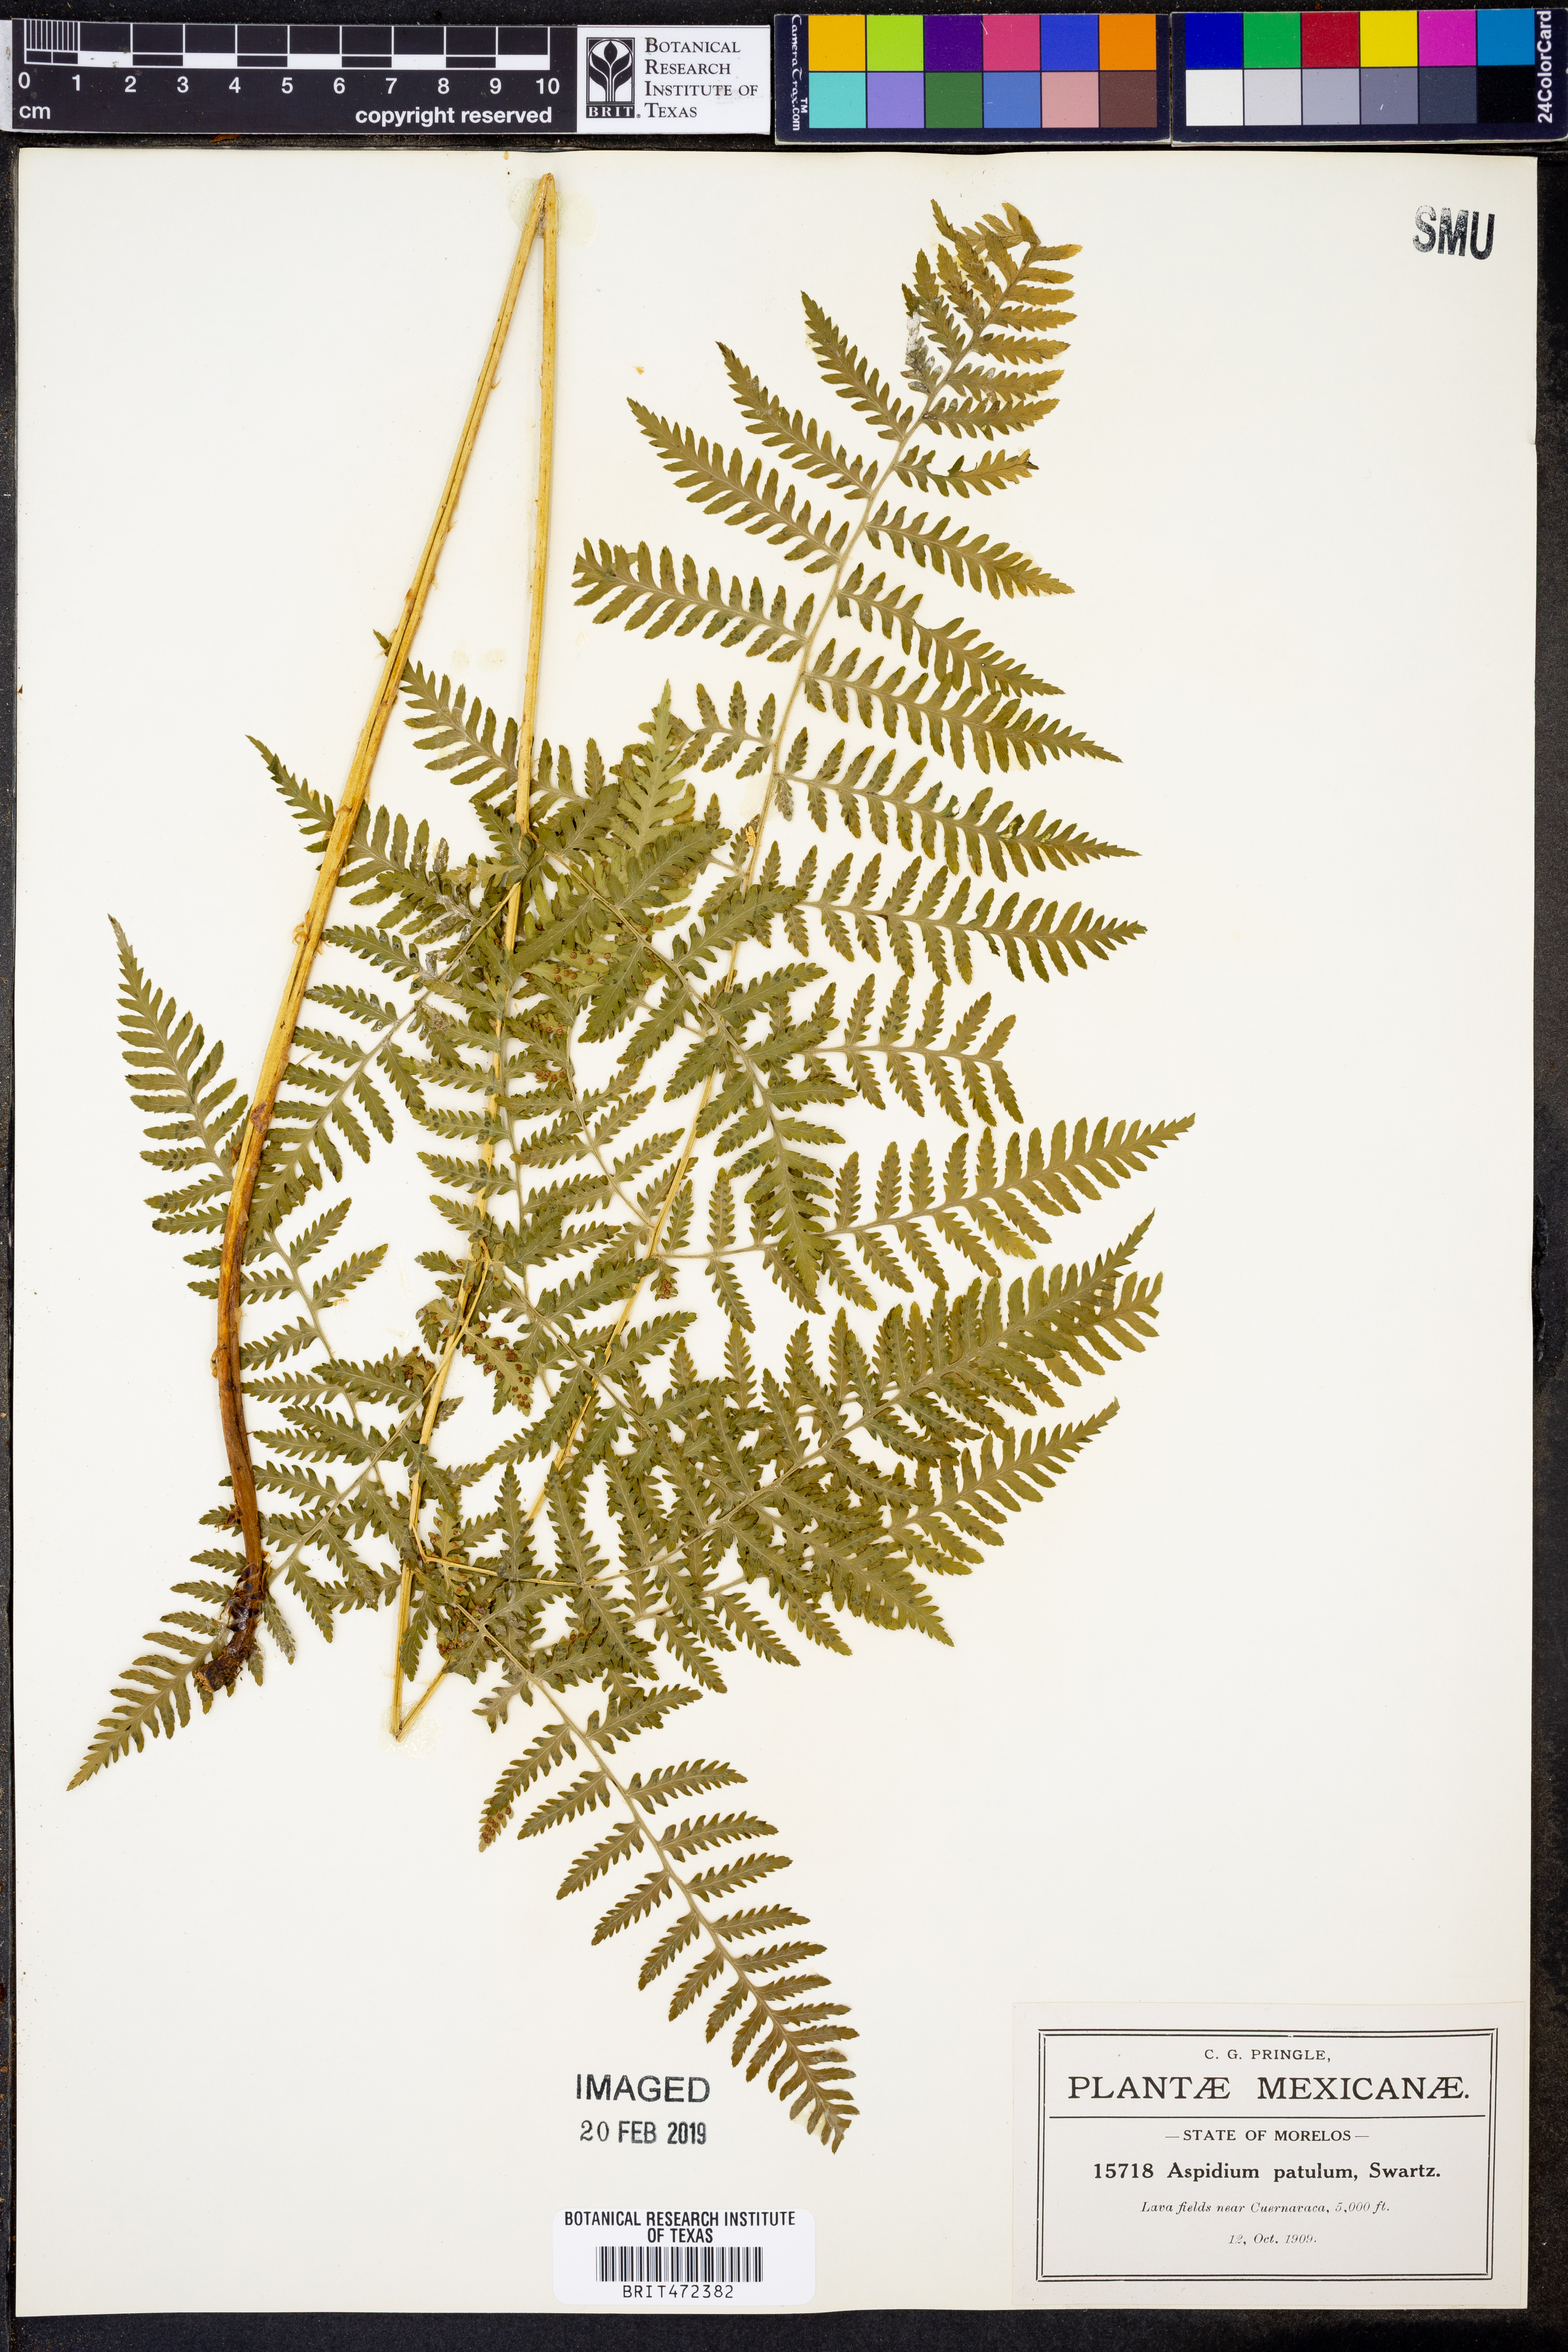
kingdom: Plantae
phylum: Tracheophyta
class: Polypodiopsida
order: Polypodiales
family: Dryopteridaceae
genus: Dryopteris
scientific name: Dryopteris maxonii
